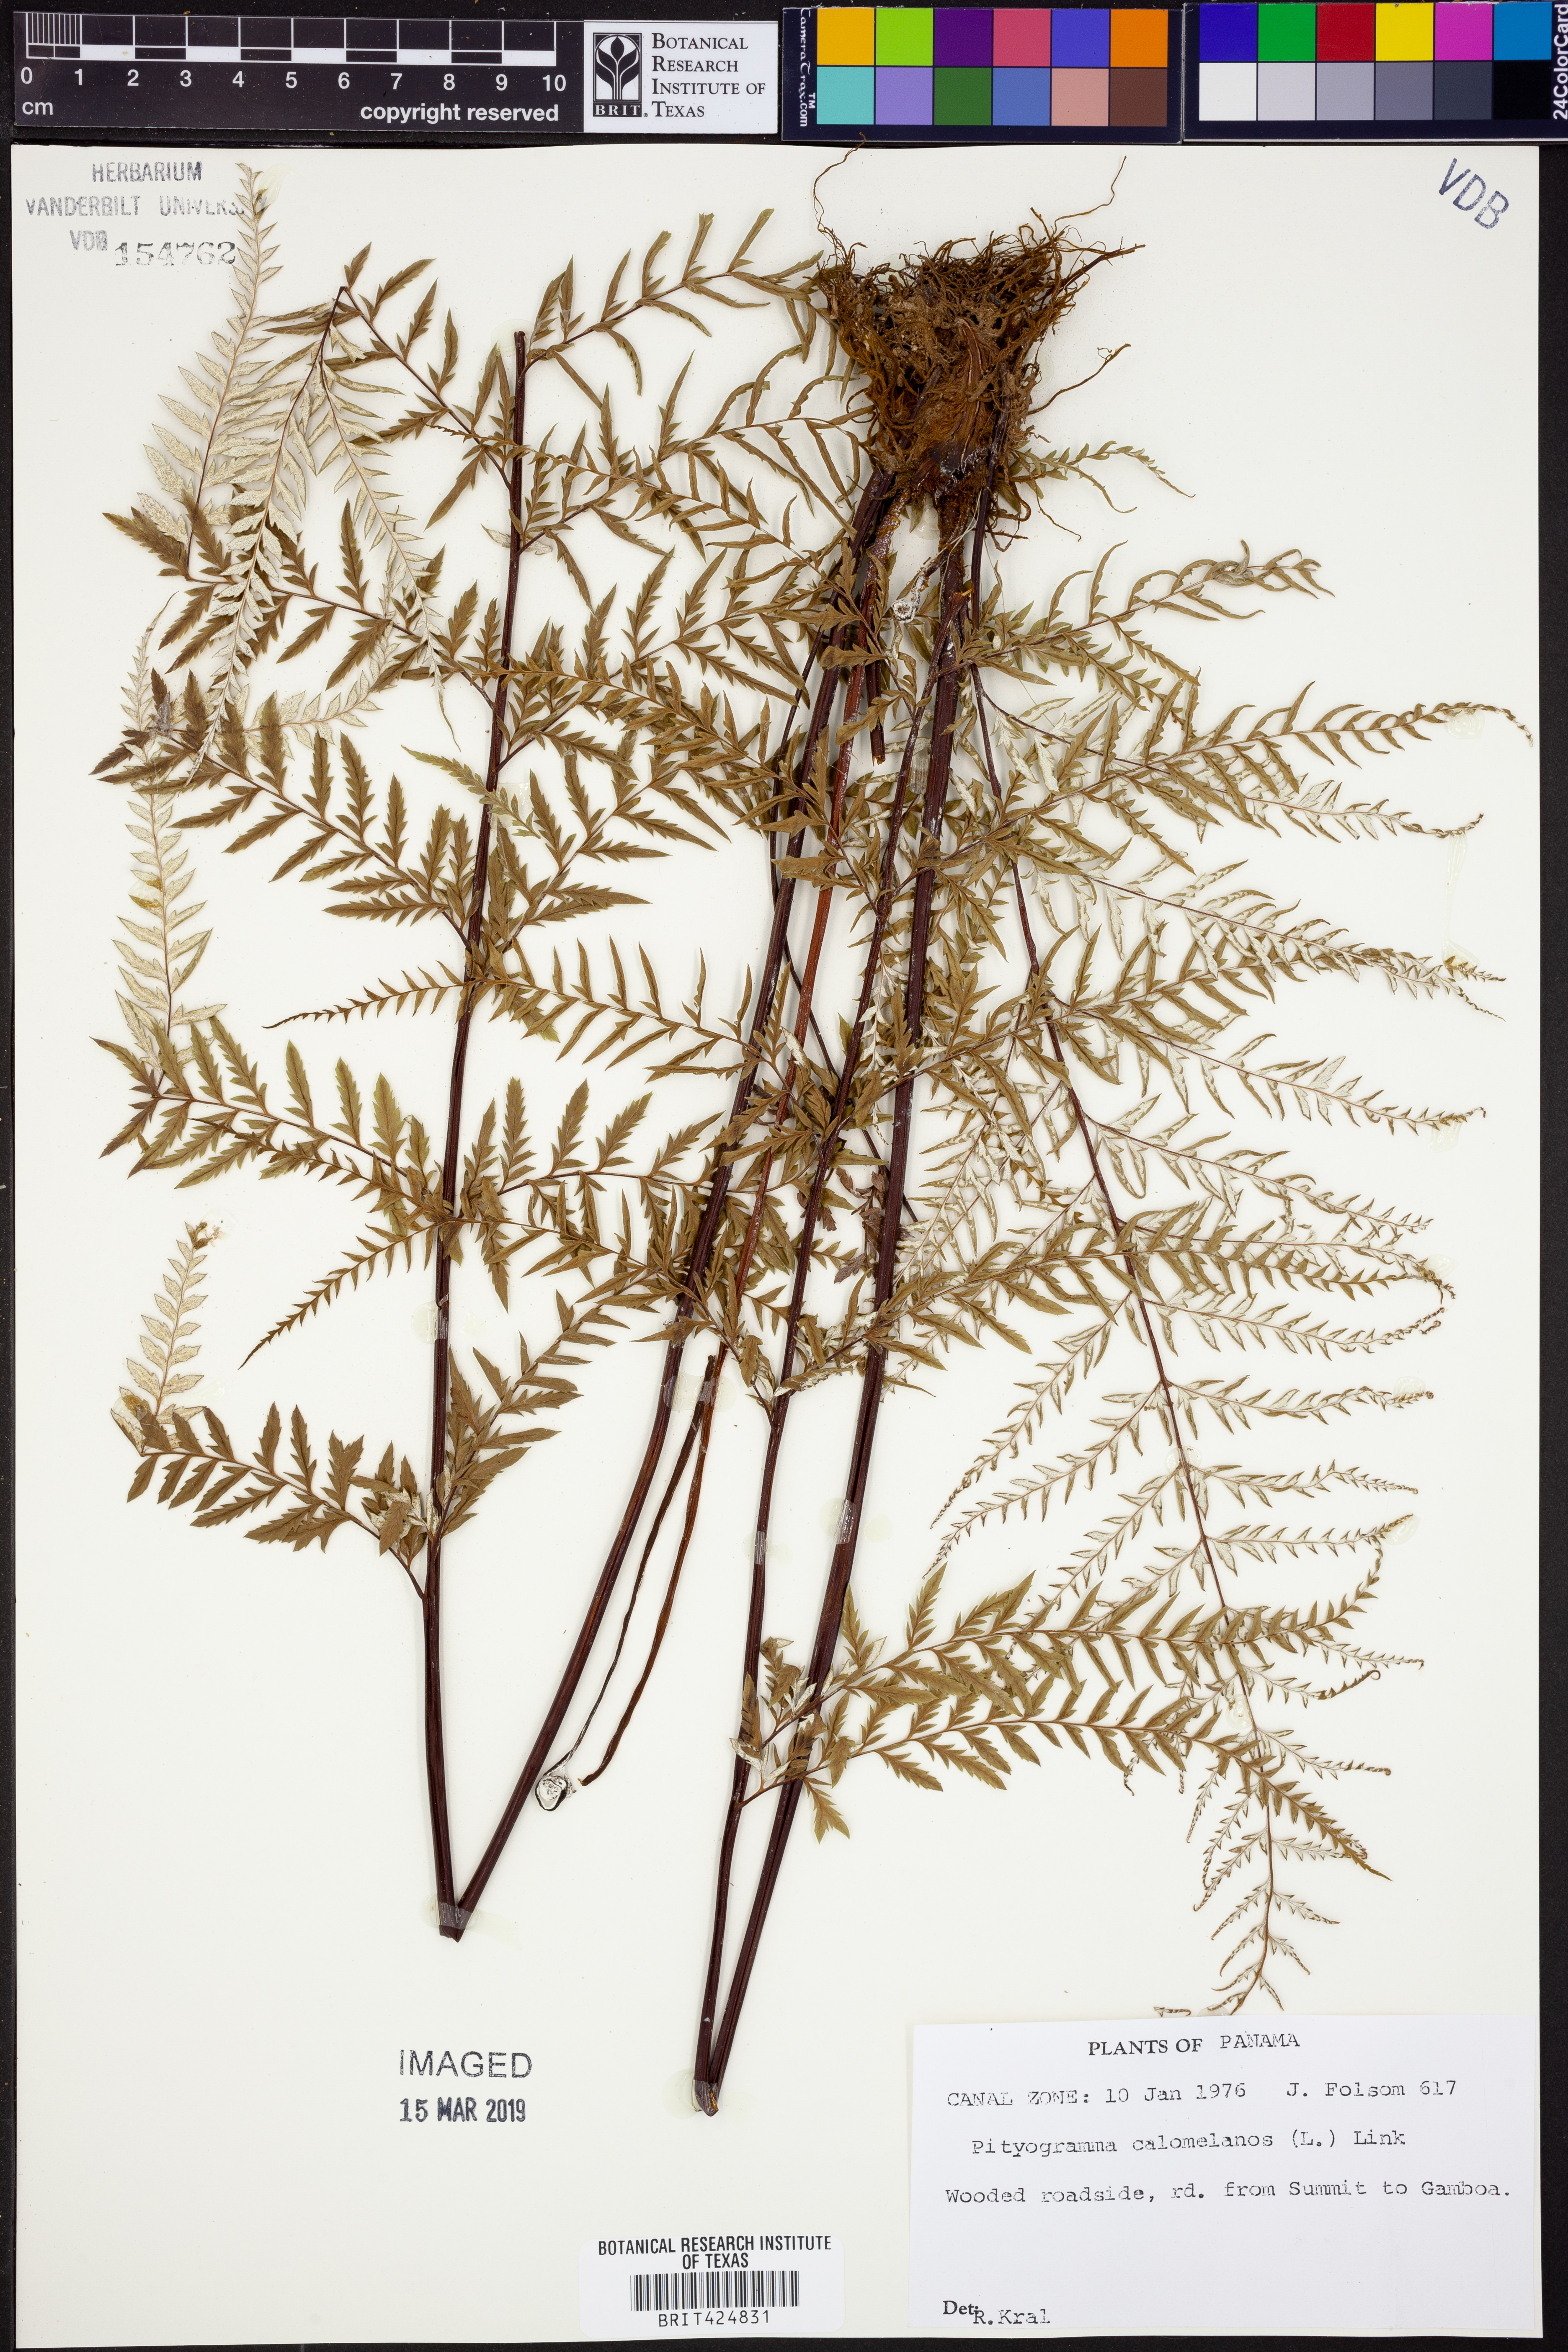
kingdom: Plantae
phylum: Tracheophyta
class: Polypodiopsida
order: Polypodiales
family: Pteridaceae
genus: Pityrogramma
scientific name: Pityrogramma calomelanos
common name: Dixie silverback fern
